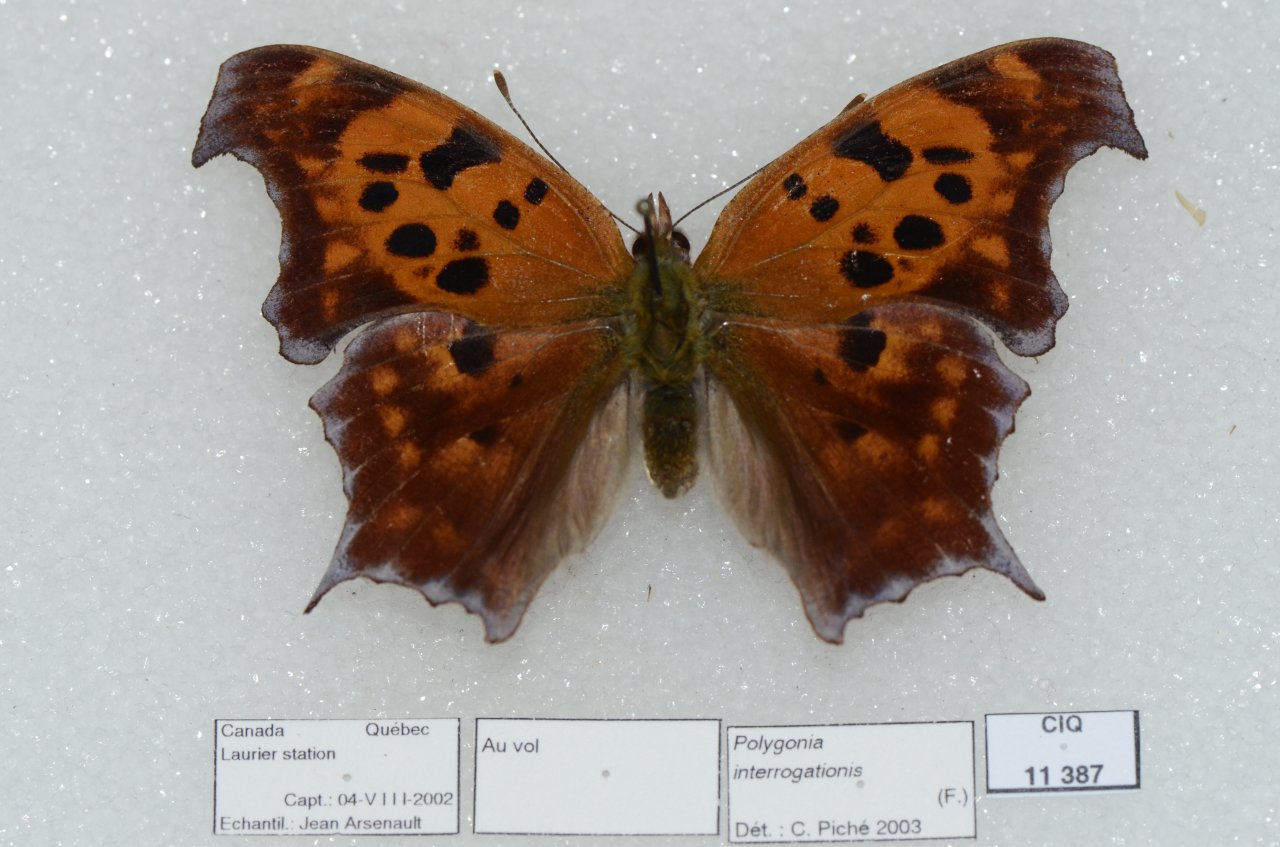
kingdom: Animalia
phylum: Arthropoda
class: Insecta
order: Lepidoptera
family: Nymphalidae
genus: Polygonia
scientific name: Polygonia interrogationis
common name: Question Mark
